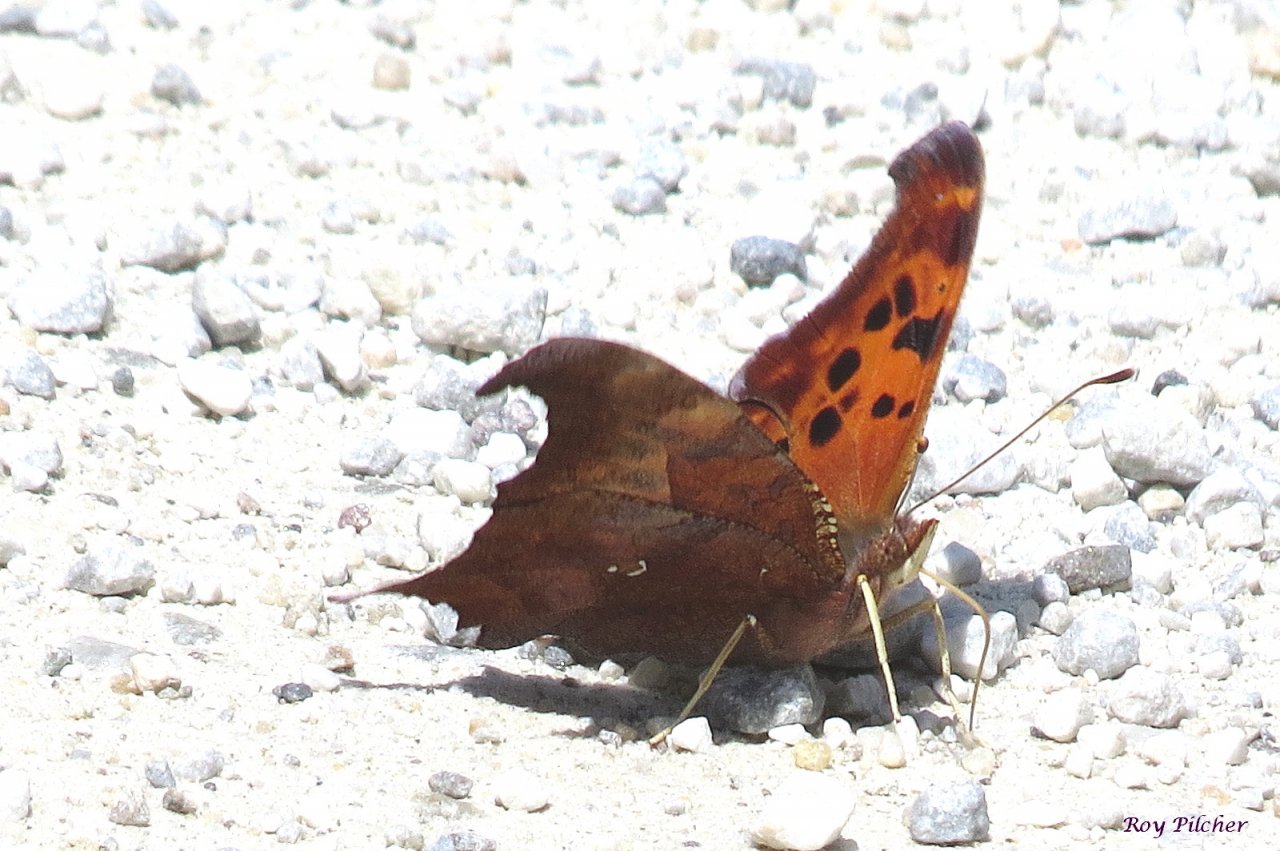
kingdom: Animalia
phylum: Arthropoda
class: Insecta
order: Lepidoptera
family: Nymphalidae
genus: Polygonia
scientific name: Polygonia interrogationis
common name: Question Mark
